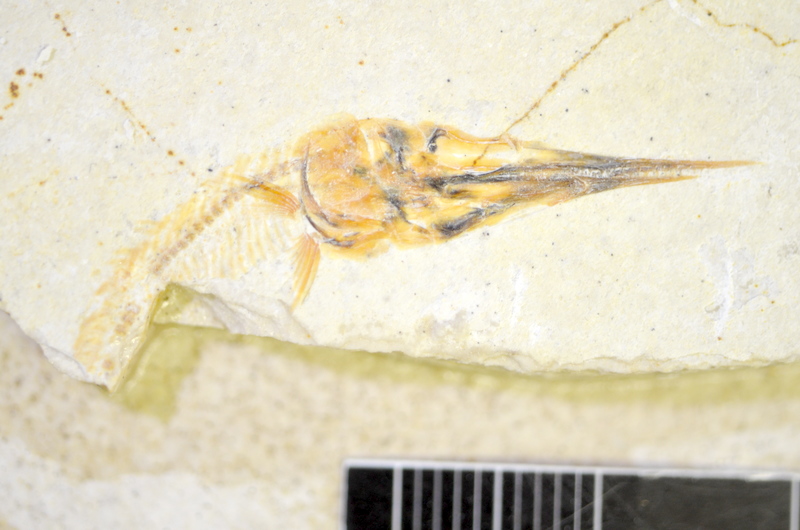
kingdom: Animalia
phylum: Chordata
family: Aspidorhynchidae
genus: Belonostomus
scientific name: Belonostomus kochii
